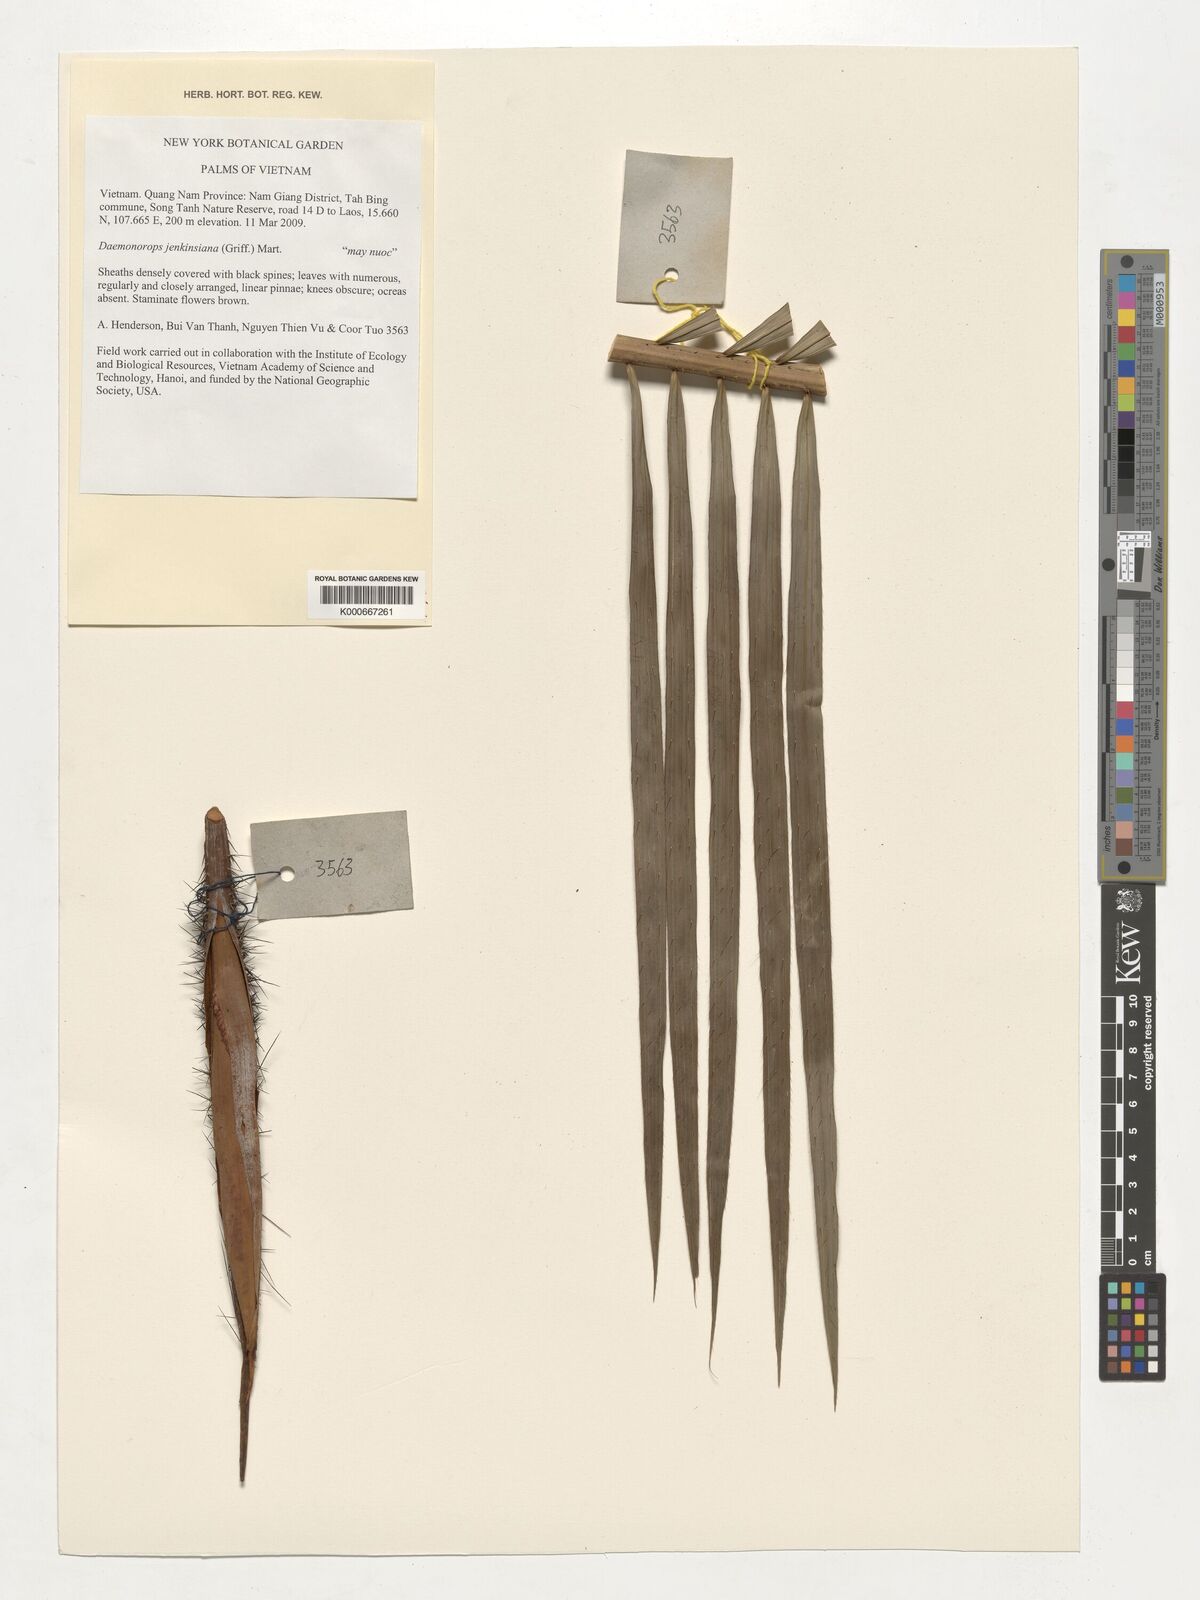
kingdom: Plantae
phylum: Tracheophyta
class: Liliopsida
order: Arecales
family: Arecaceae
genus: Calamus
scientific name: Calamus melanochaetes
